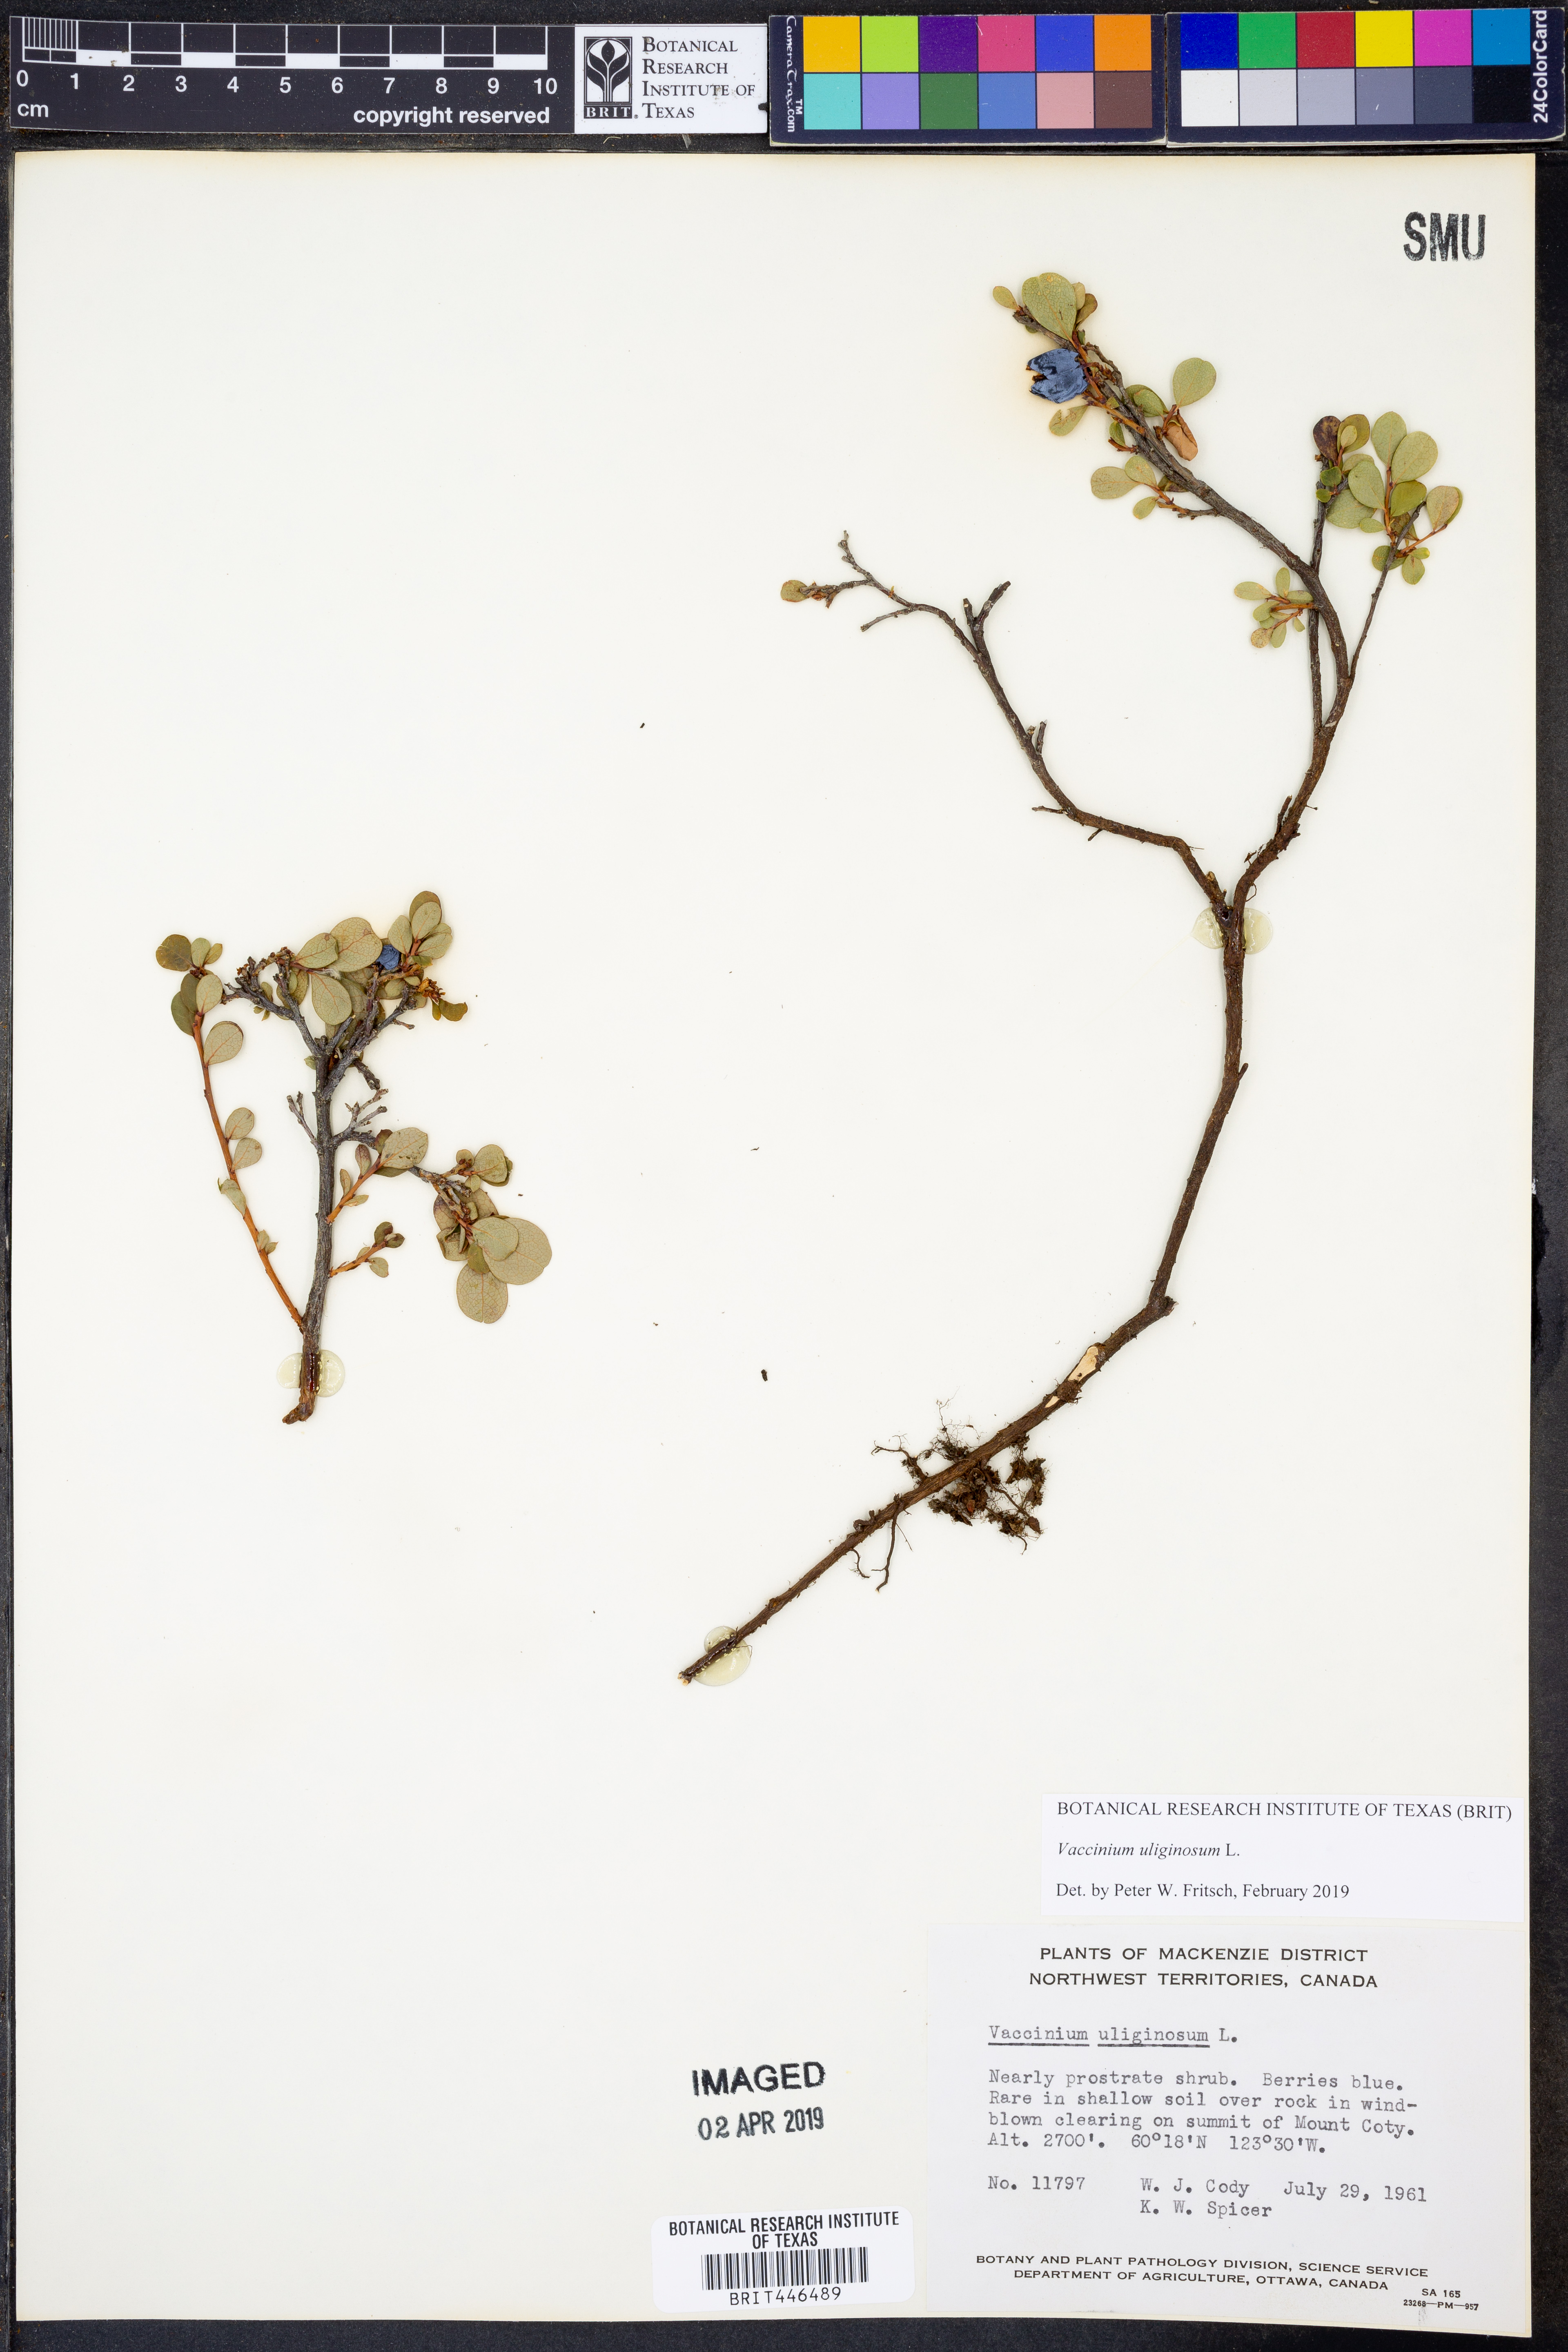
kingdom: Plantae
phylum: Tracheophyta
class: Magnoliopsida
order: Ericales
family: Ericaceae
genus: Vaccinium
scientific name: Vaccinium uliginosum
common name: Bog bilberry
